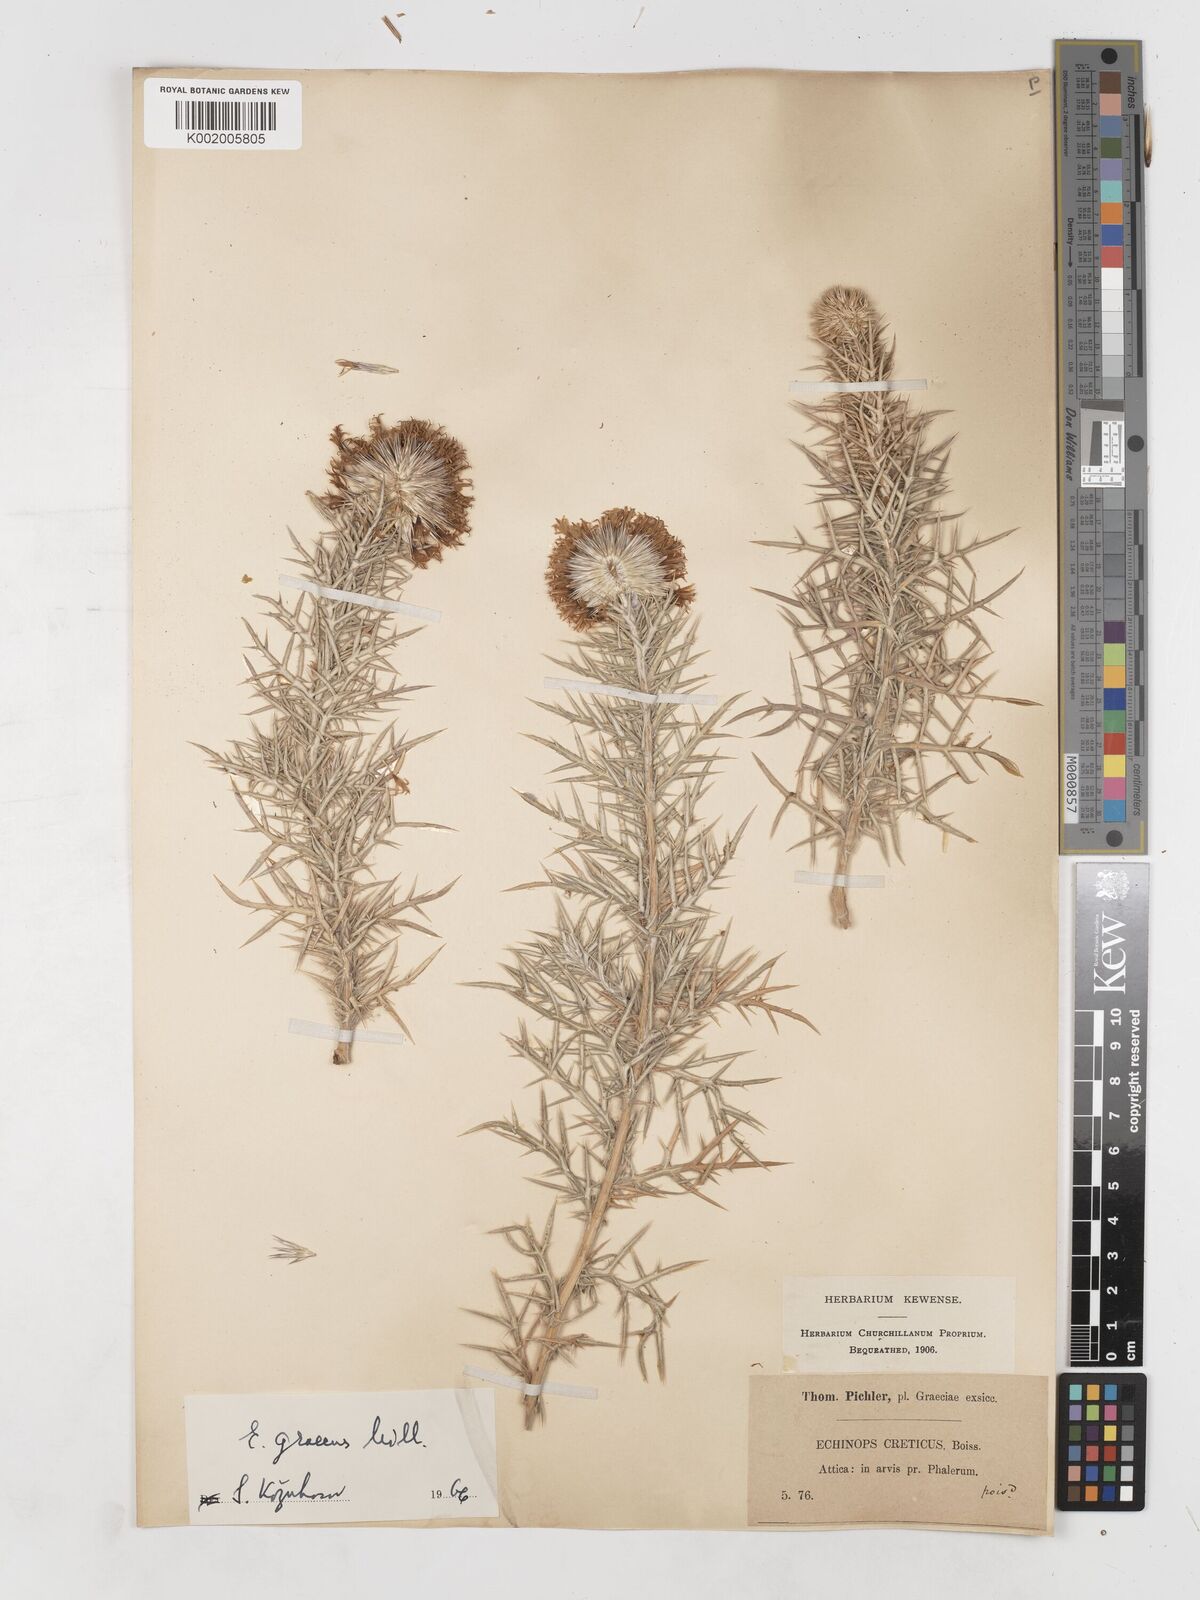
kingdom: Plantae
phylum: Tracheophyta
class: Magnoliopsida
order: Asterales
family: Asteraceae
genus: Echinops
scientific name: Echinops graecus
